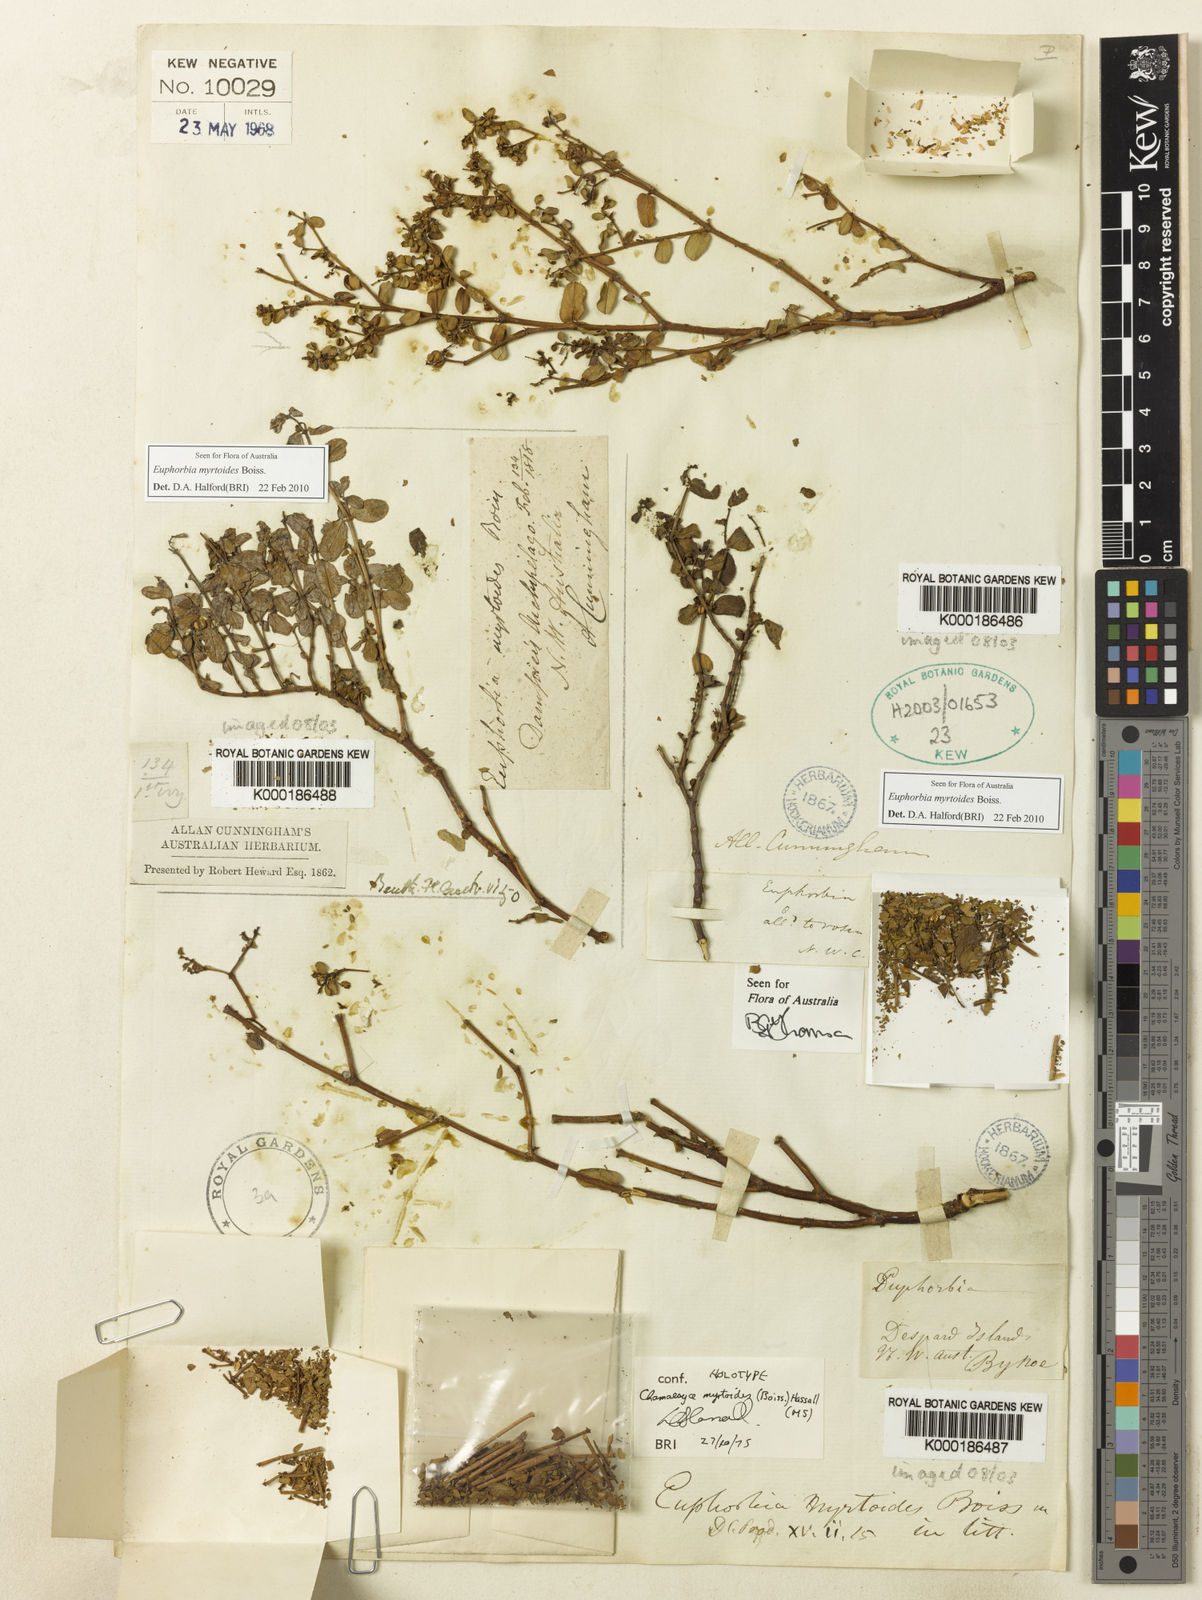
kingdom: Plantae
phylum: Tracheophyta
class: Magnoliopsida
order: Malpighiales
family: Euphorbiaceae
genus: Euphorbia
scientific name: Euphorbia myrtoides
